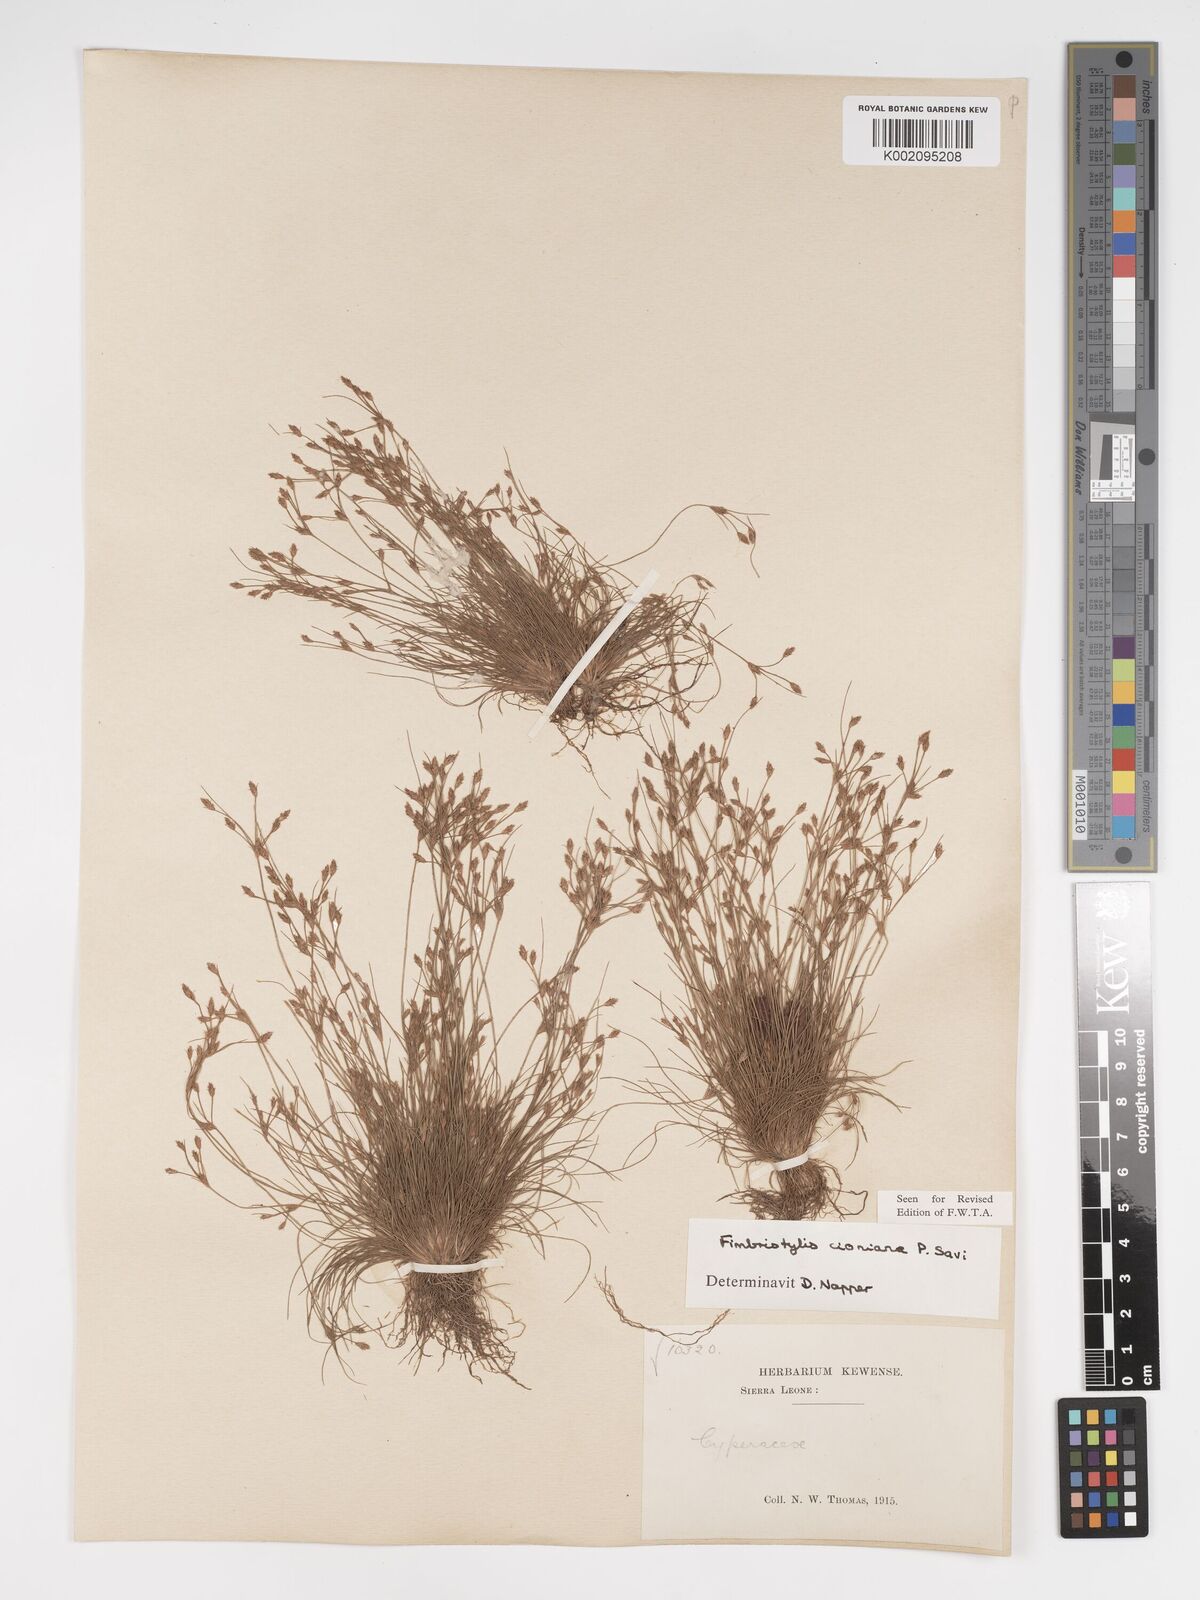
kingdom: Plantae
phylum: Tracheophyta
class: Liliopsida
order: Poales
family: Cyperaceae
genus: Bulbostylis
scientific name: Bulbostylis cioniana
